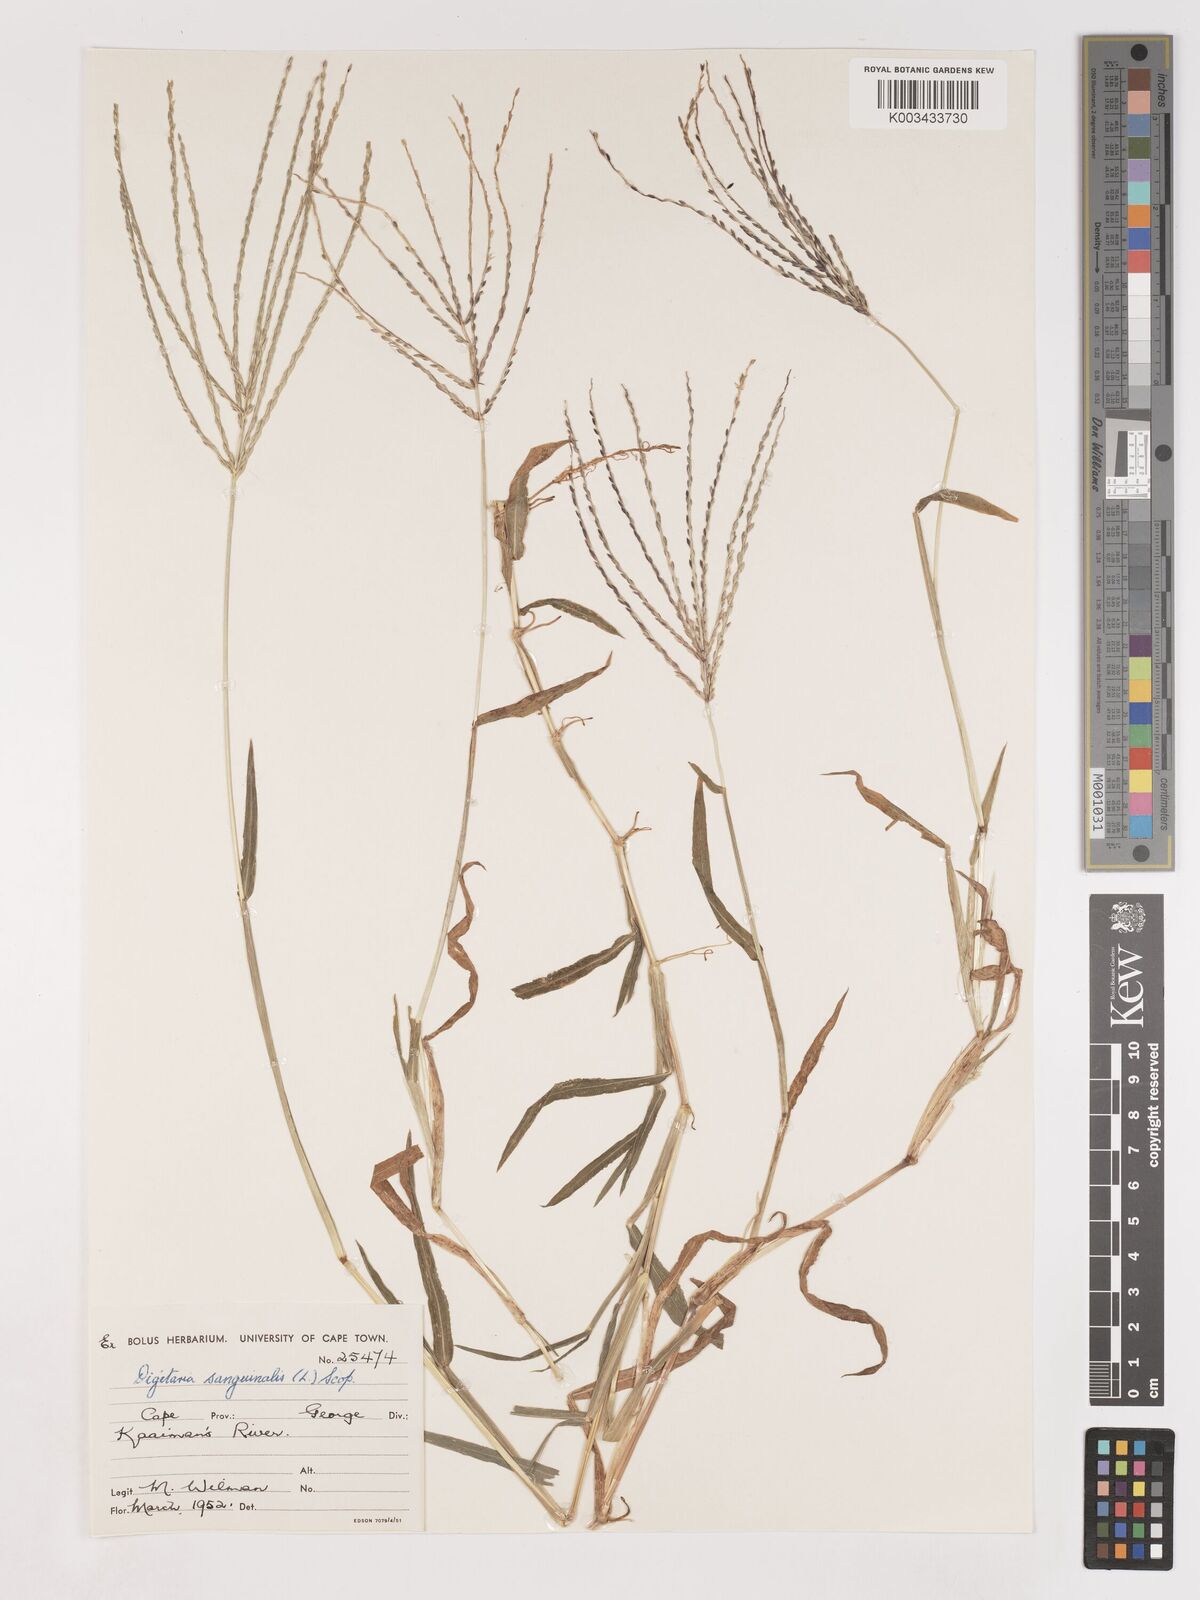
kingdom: Plantae
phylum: Tracheophyta
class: Liliopsida
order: Poales
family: Poaceae
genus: Digitaria
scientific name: Digitaria sanguinalis
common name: Hairy crabgrass
